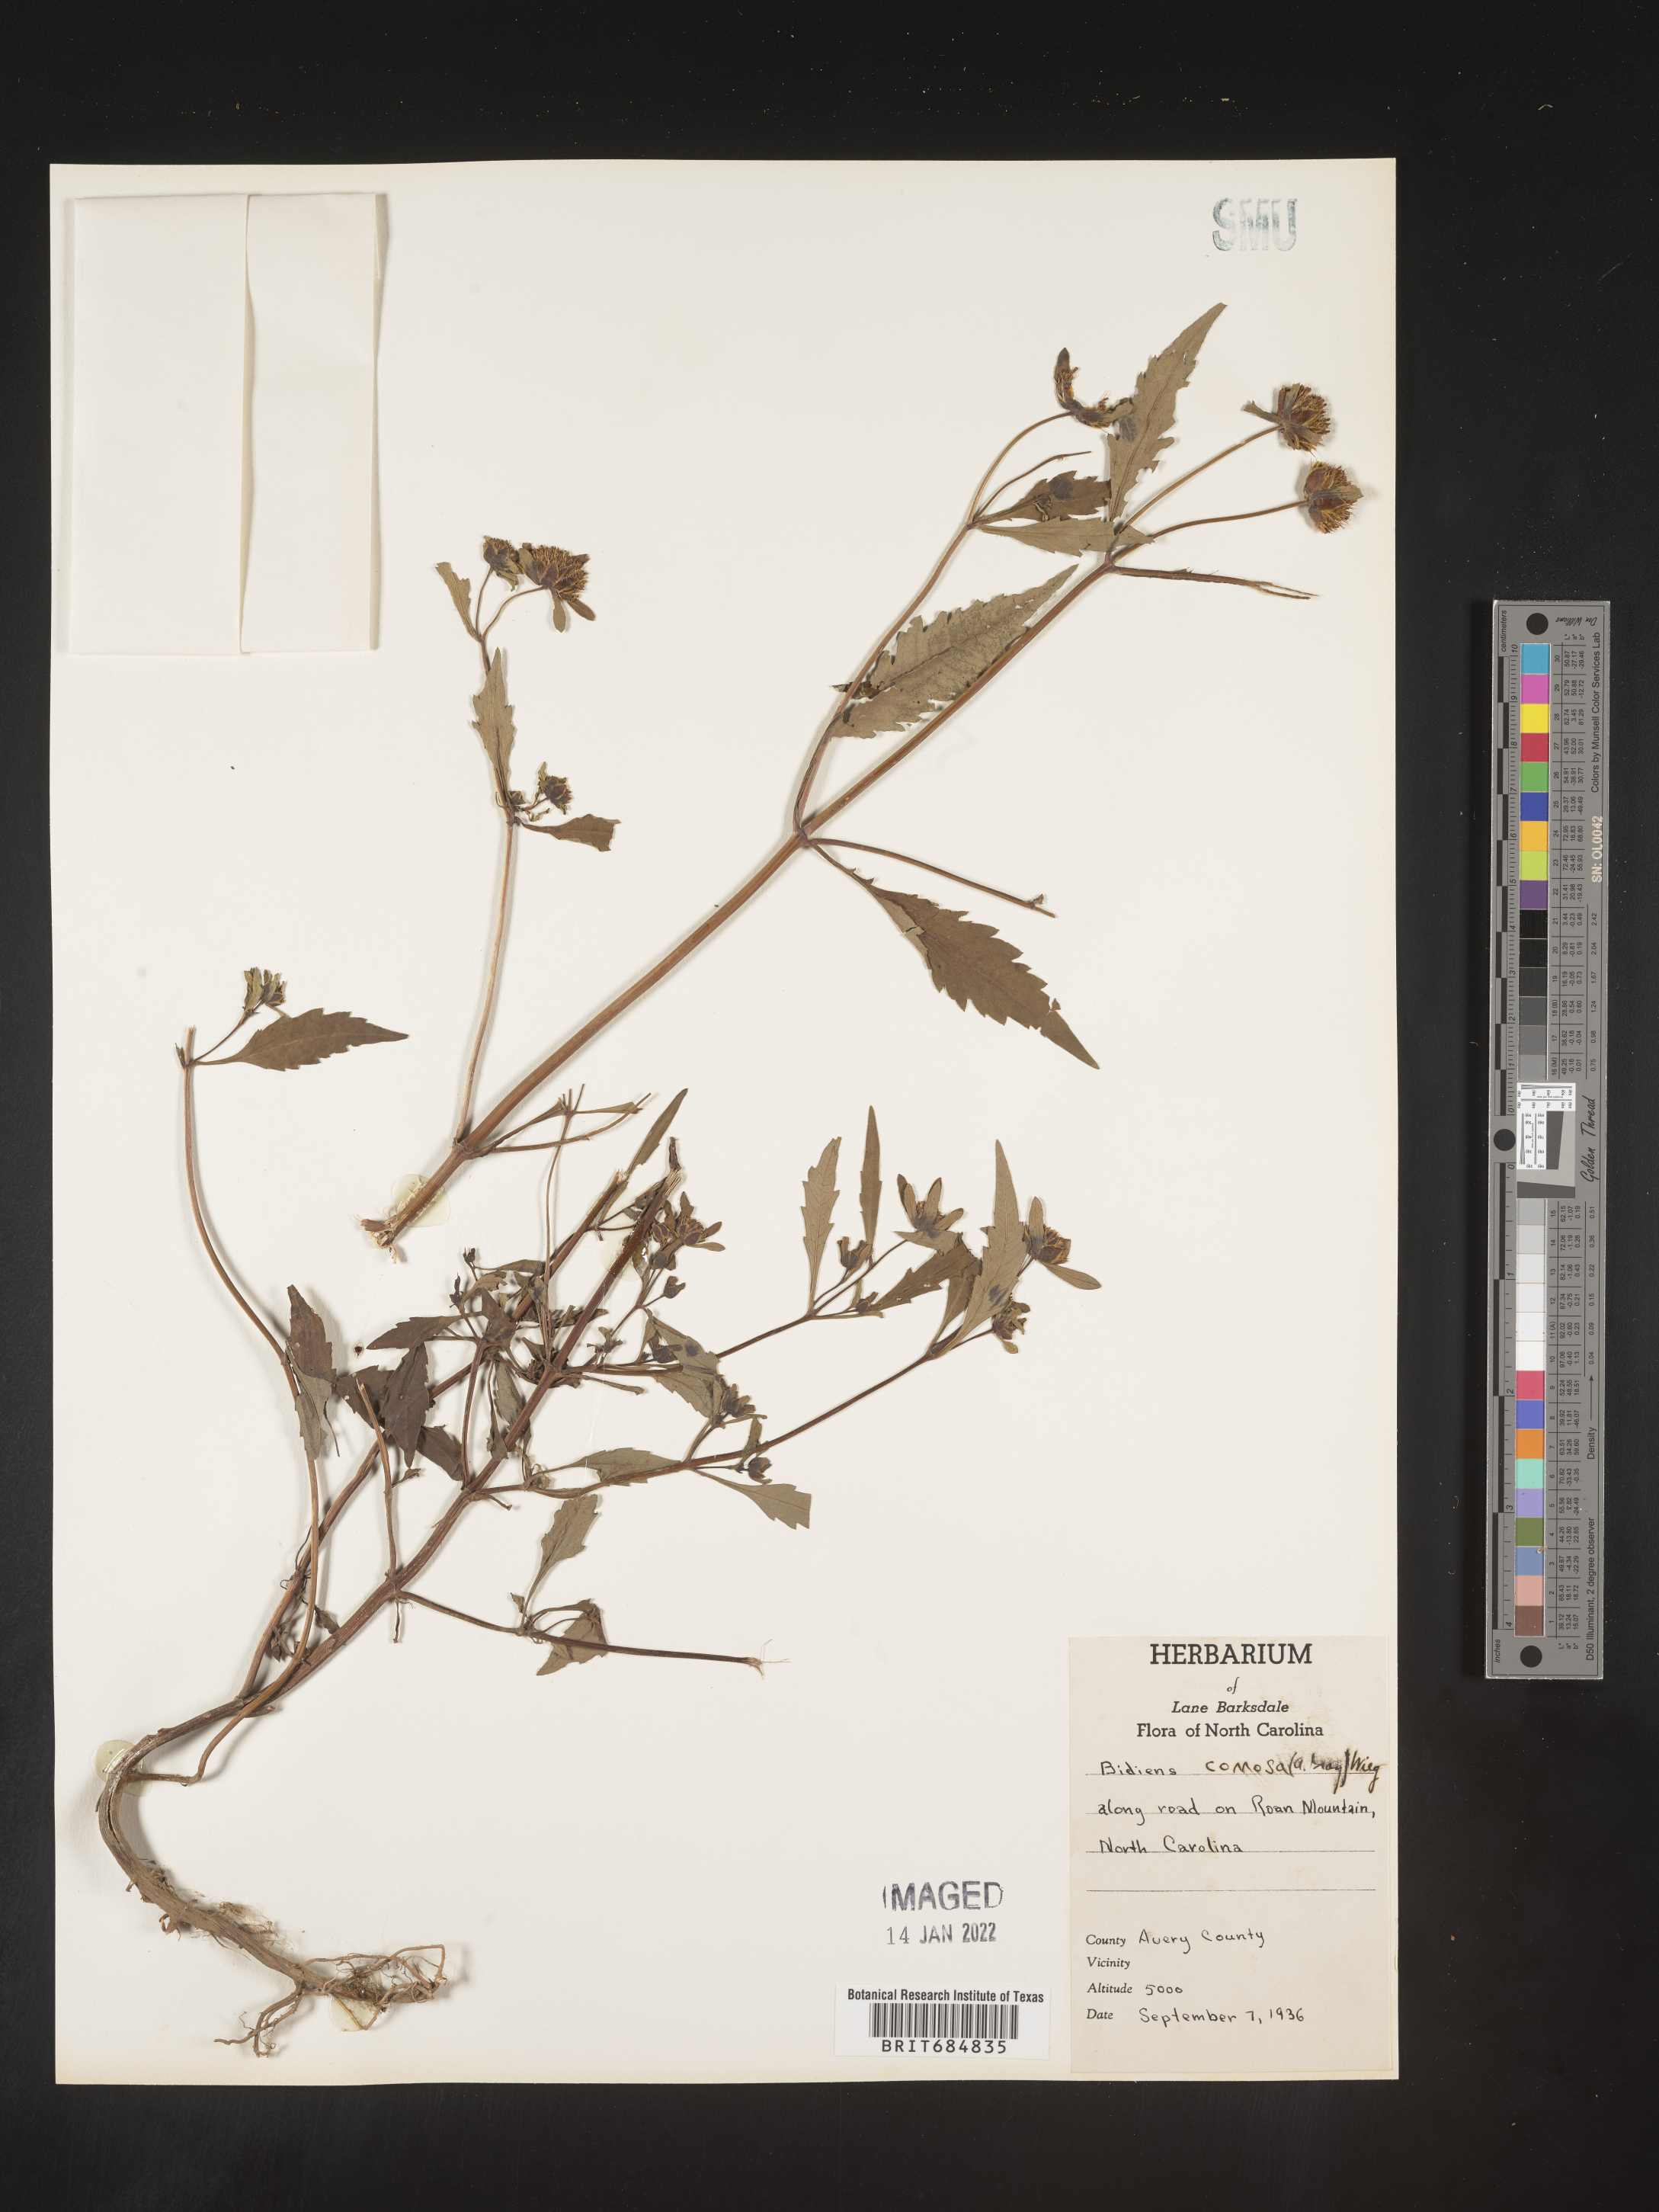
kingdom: Plantae
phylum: Tracheophyta
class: Magnoliopsida
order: Asterales
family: Asteraceae
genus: Bidens
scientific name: Bidens tripartita
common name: Trifid bur-marigold
